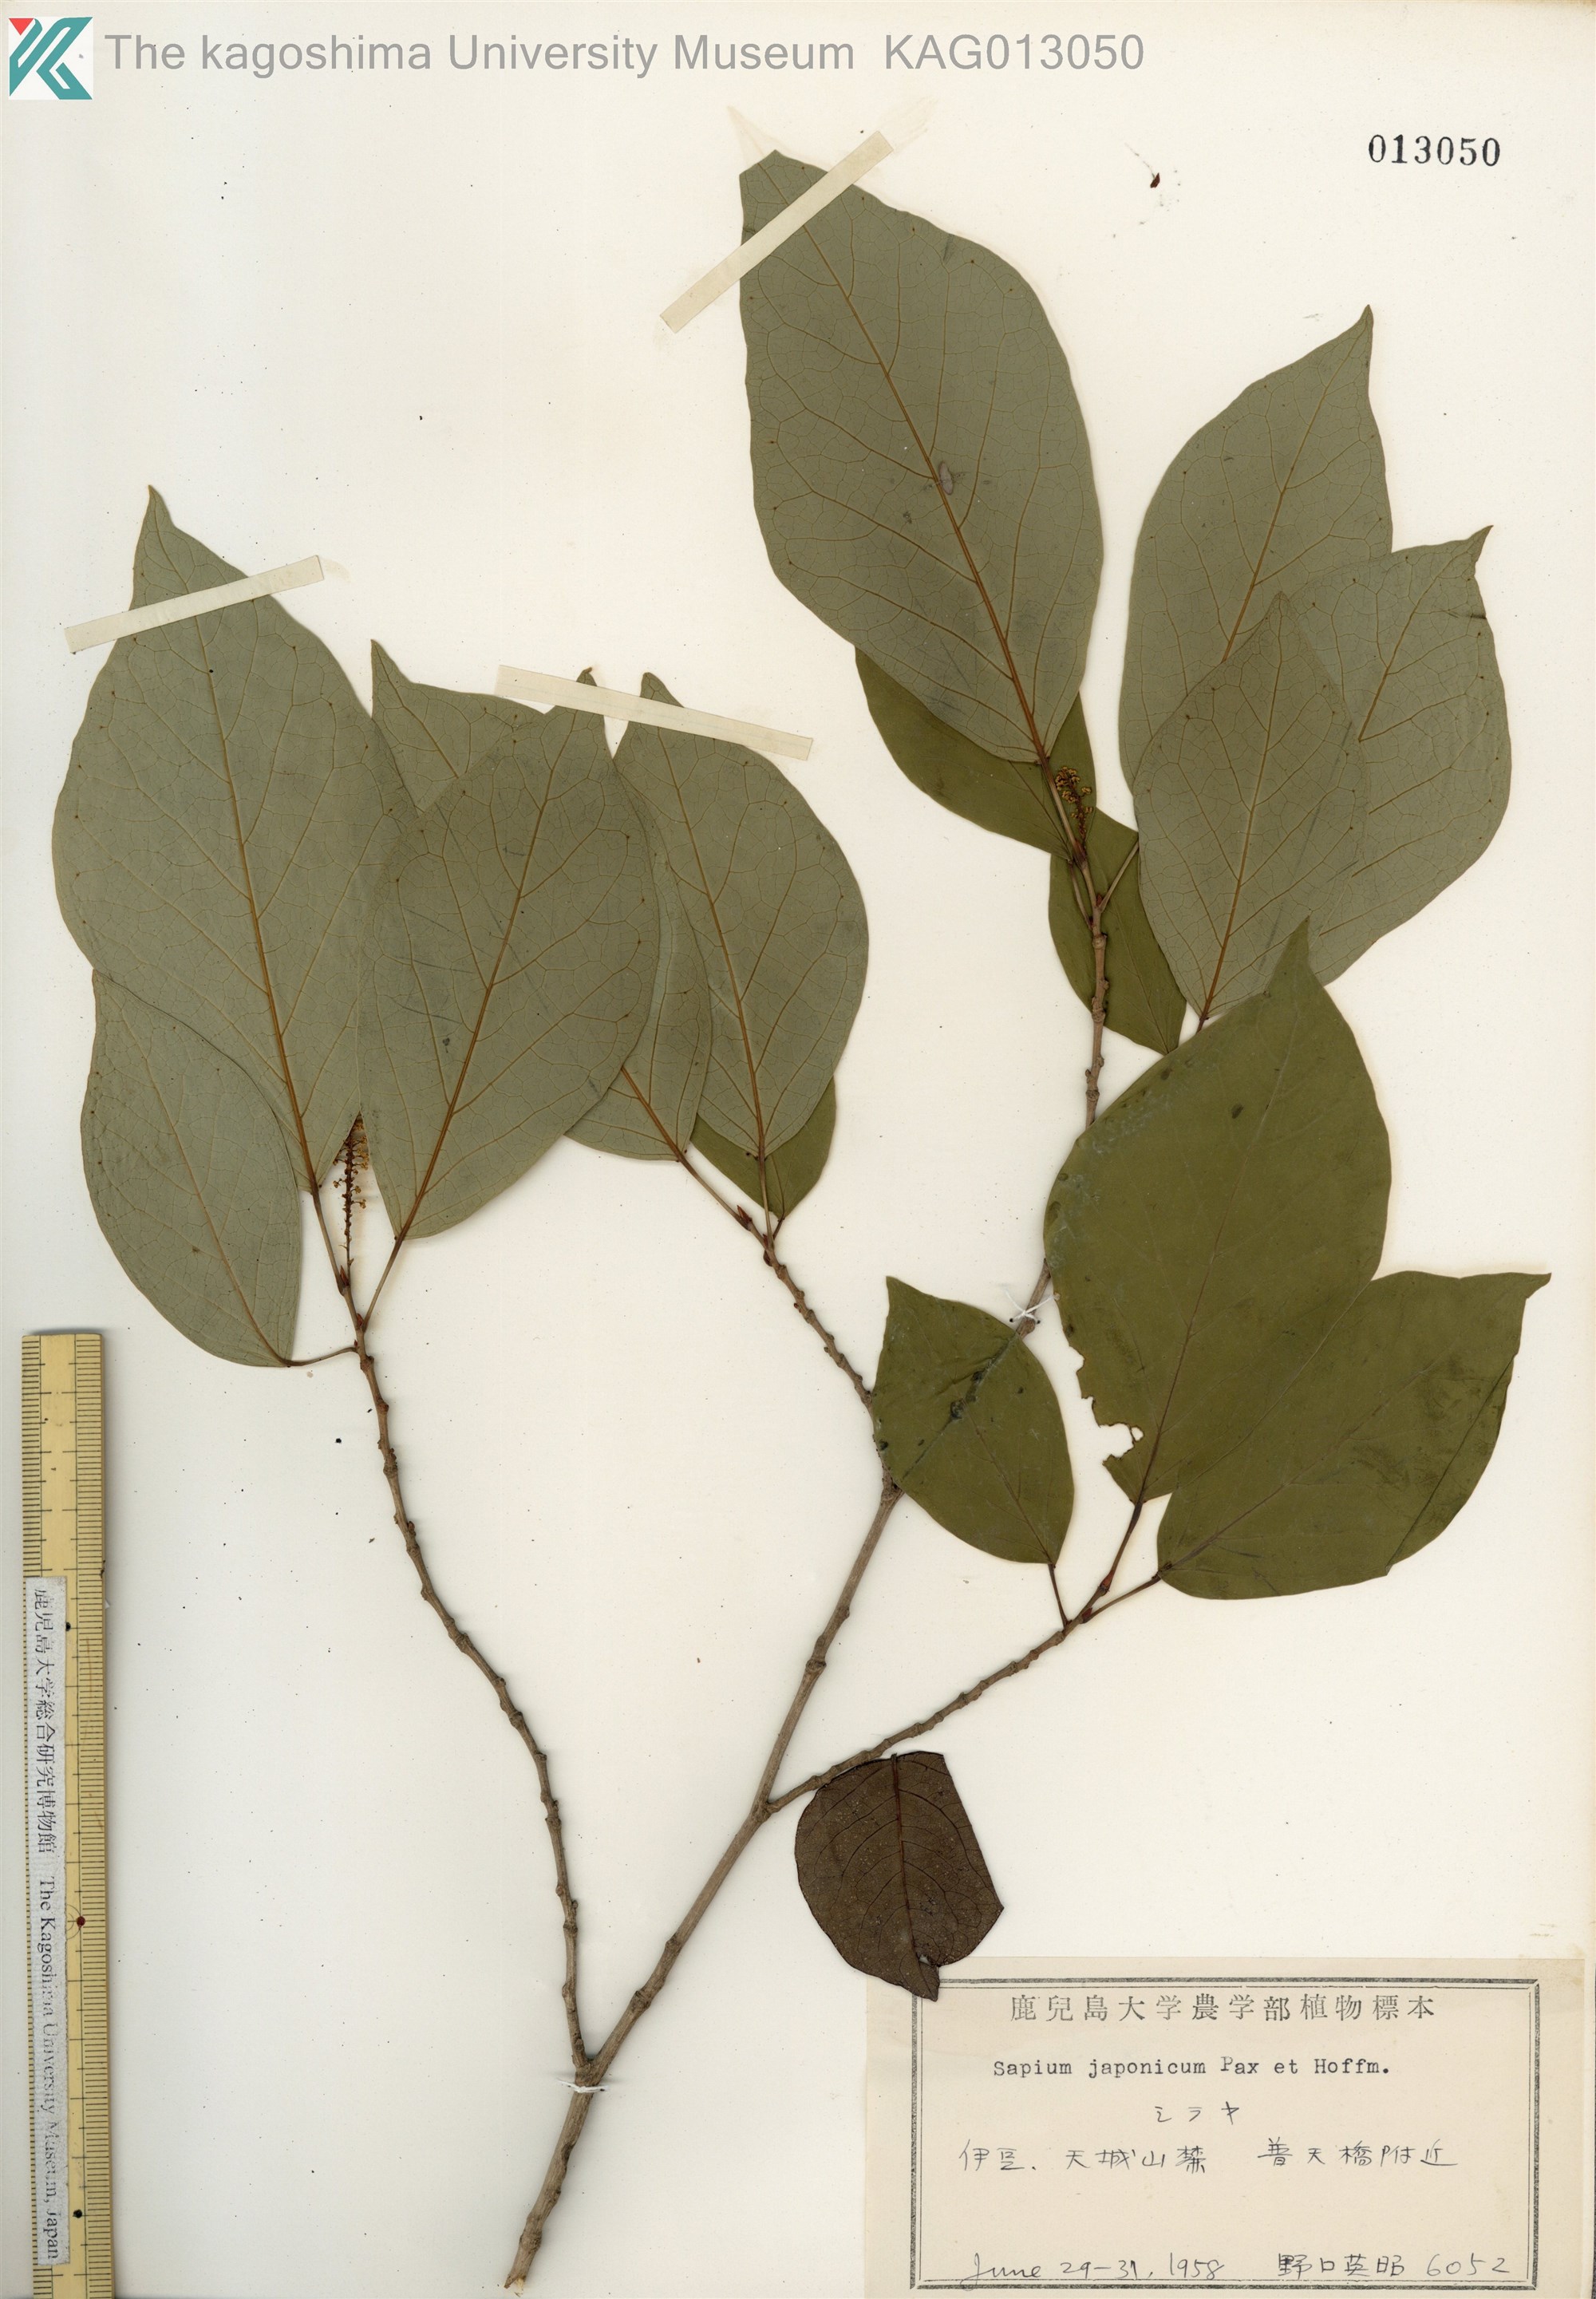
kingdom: Plantae
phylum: Tracheophyta
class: Magnoliopsida
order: Malpighiales
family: Euphorbiaceae
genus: Neoshirakia
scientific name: Neoshirakia japonica
